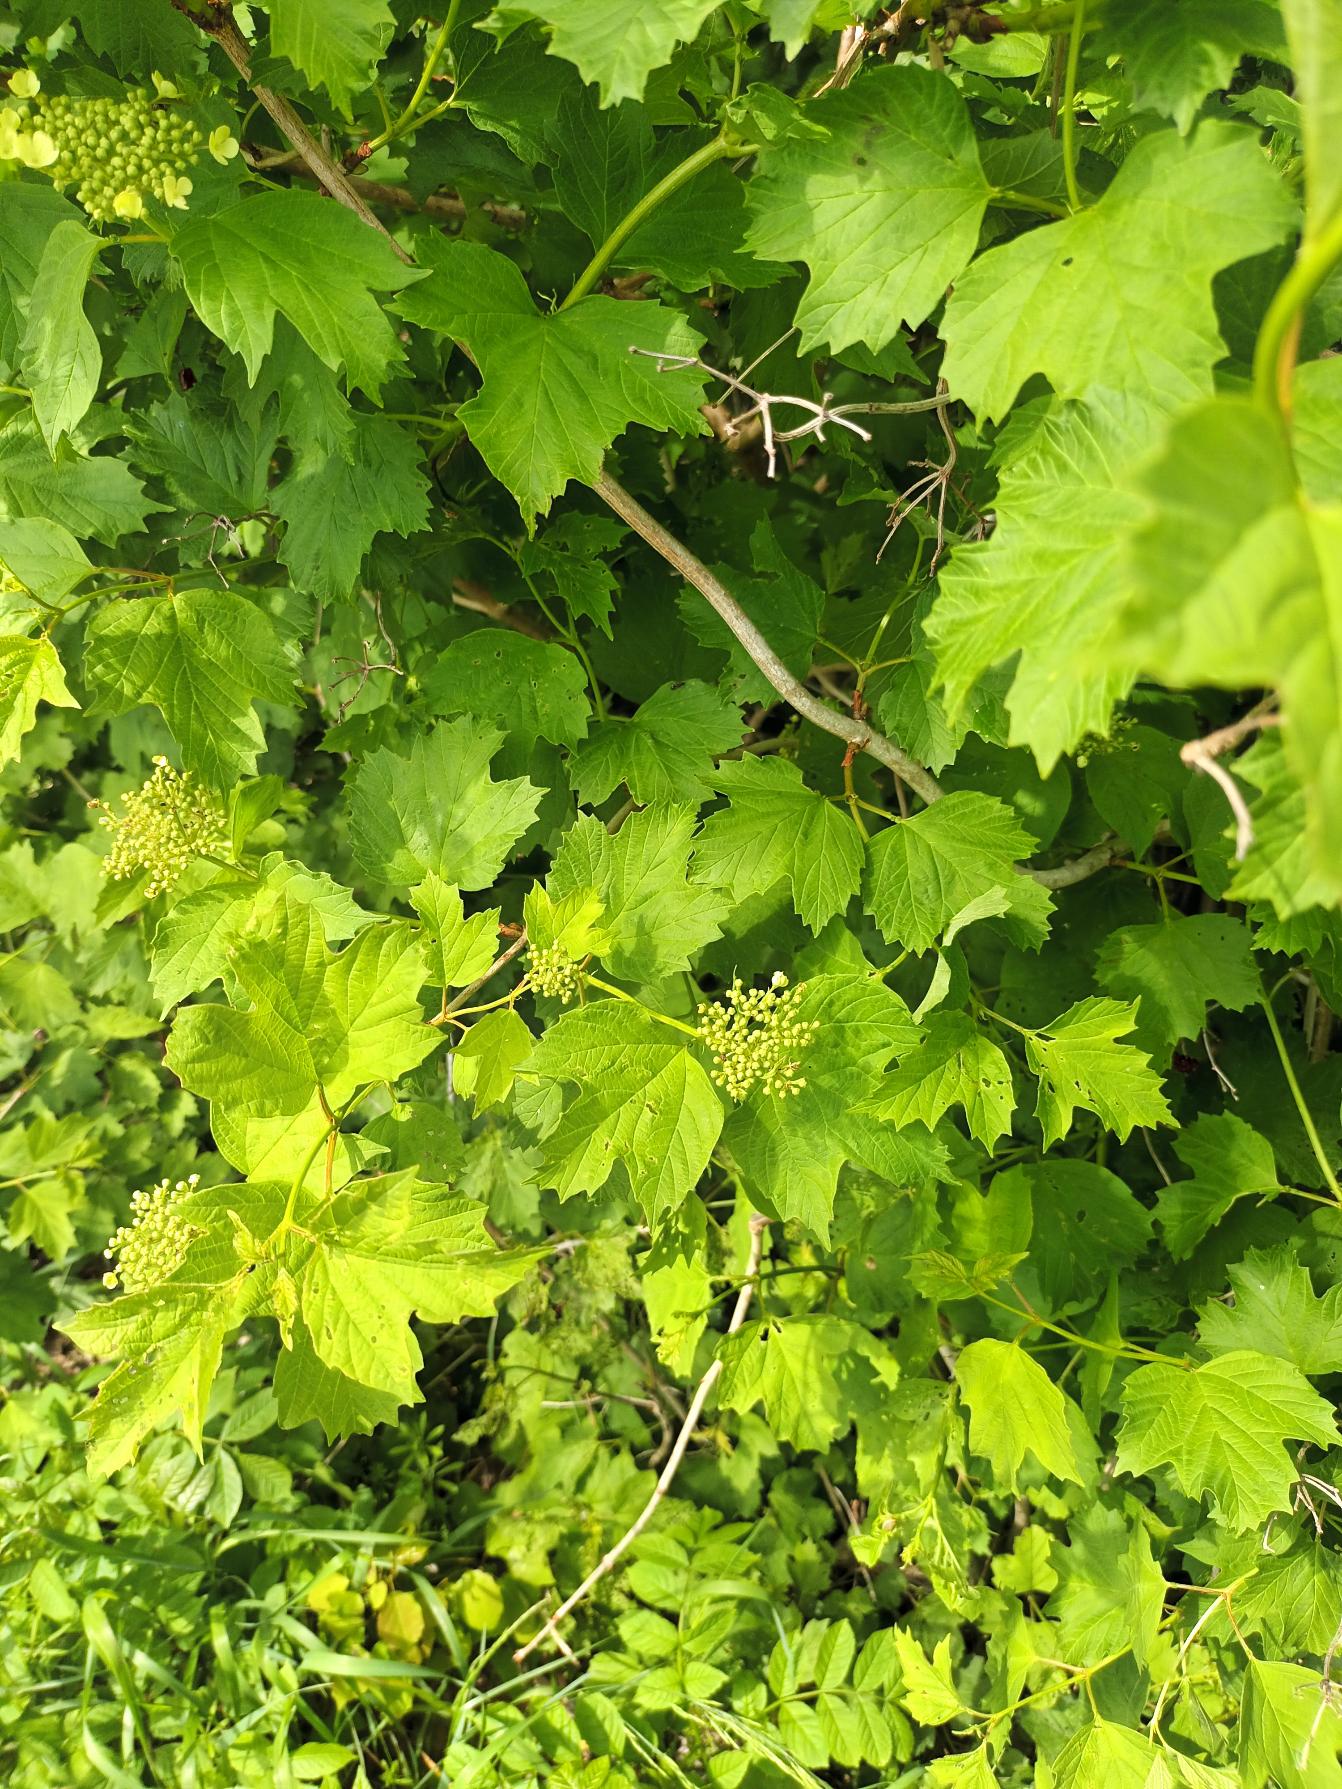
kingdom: Plantae
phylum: Tracheophyta
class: Magnoliopsida
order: Dipsacales
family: Viburnaceae
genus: Viburnum
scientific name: Viburnum opulus
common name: Kvalkved
